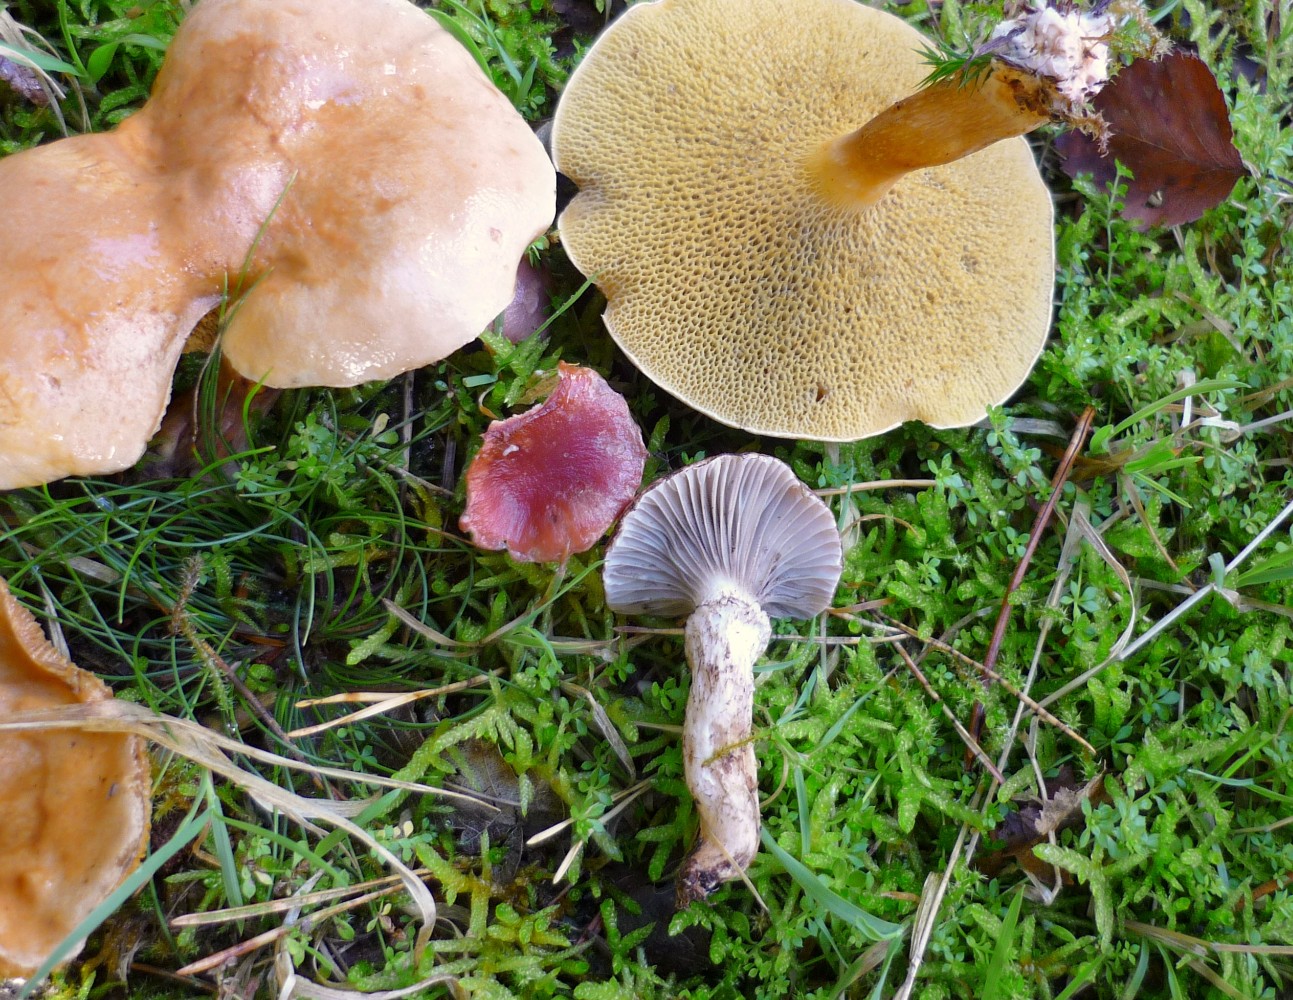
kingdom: Fungi
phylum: Basidiomycota
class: Agaricomycetes
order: Boletales
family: Gomphidiaceae
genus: Gomphidius
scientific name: Gomphidius roseus
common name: rosenrød slimslør
